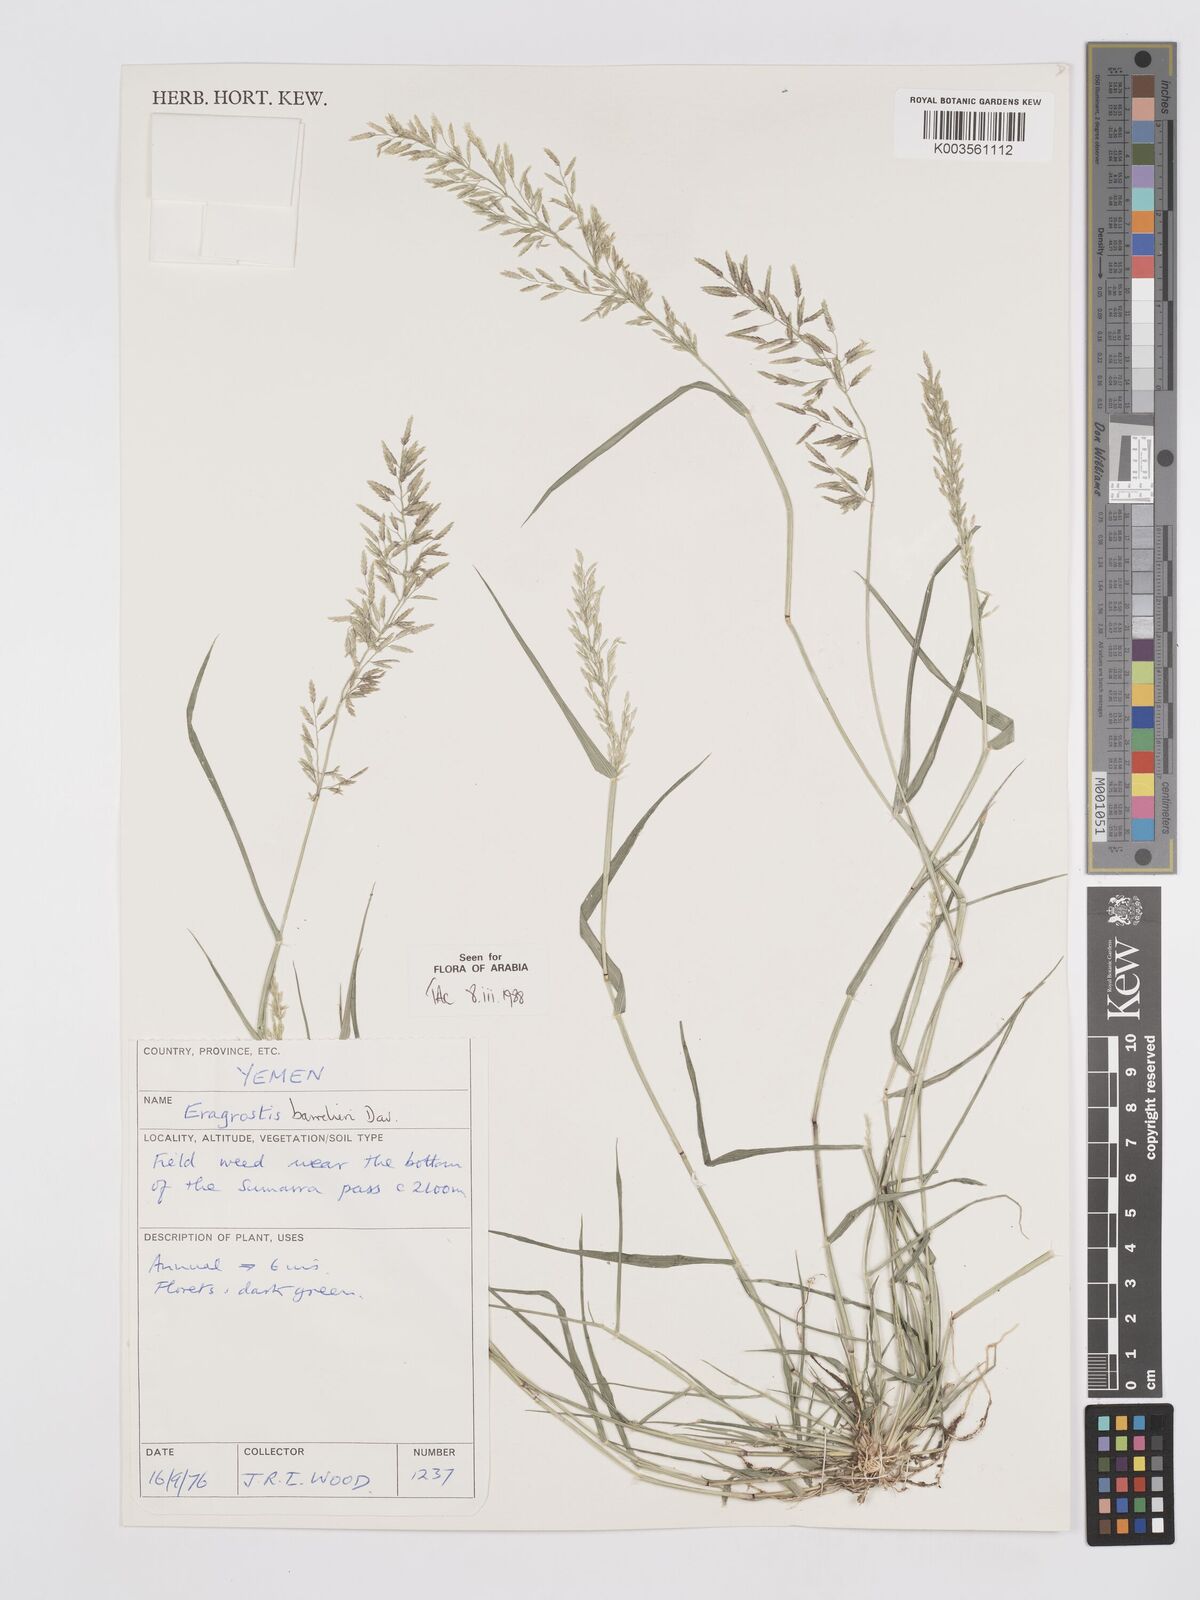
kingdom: Plantae
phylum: Tracheophyta
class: Liliopsida
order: Poales
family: Poaceae
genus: Eragrostis
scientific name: Eragrostis barrelieri
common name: Mediterranean lovegrass
